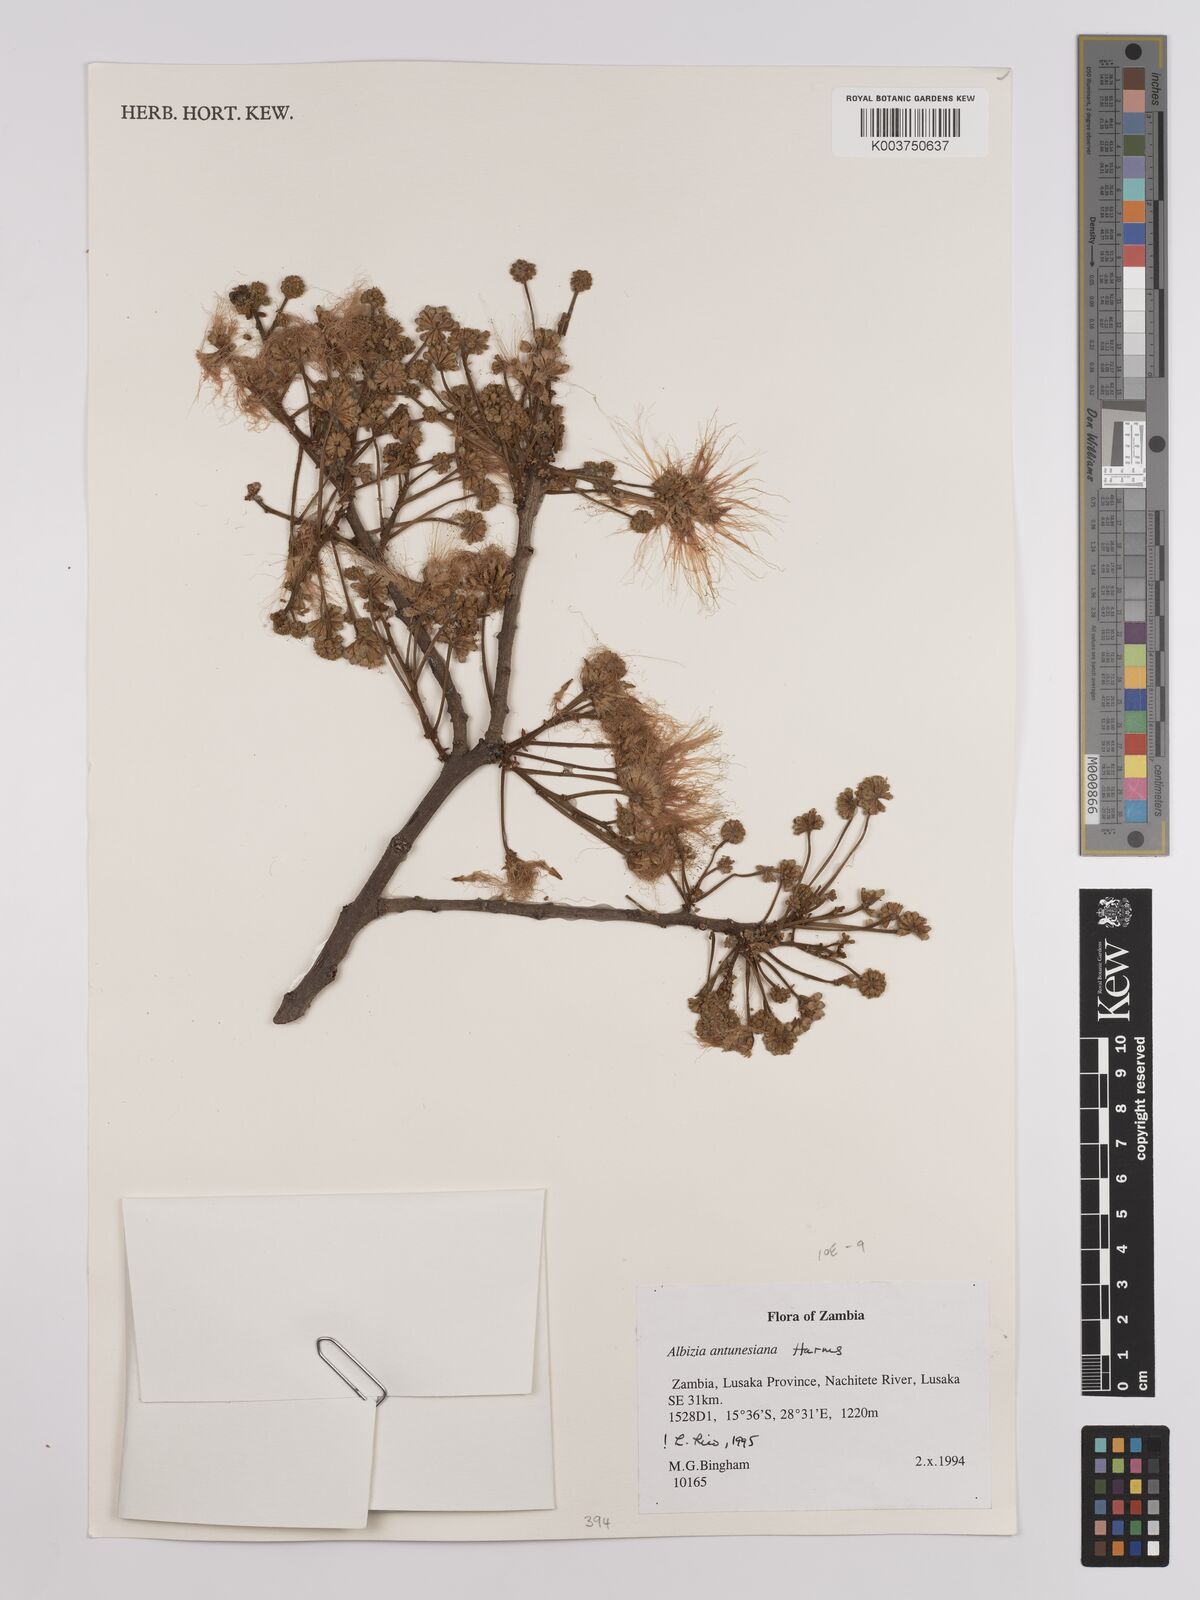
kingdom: Plantae
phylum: Tracheophyta
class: Magnoliopsida
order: Fabales
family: Fabaceae
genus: Albizia
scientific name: Albizia antunesiana
